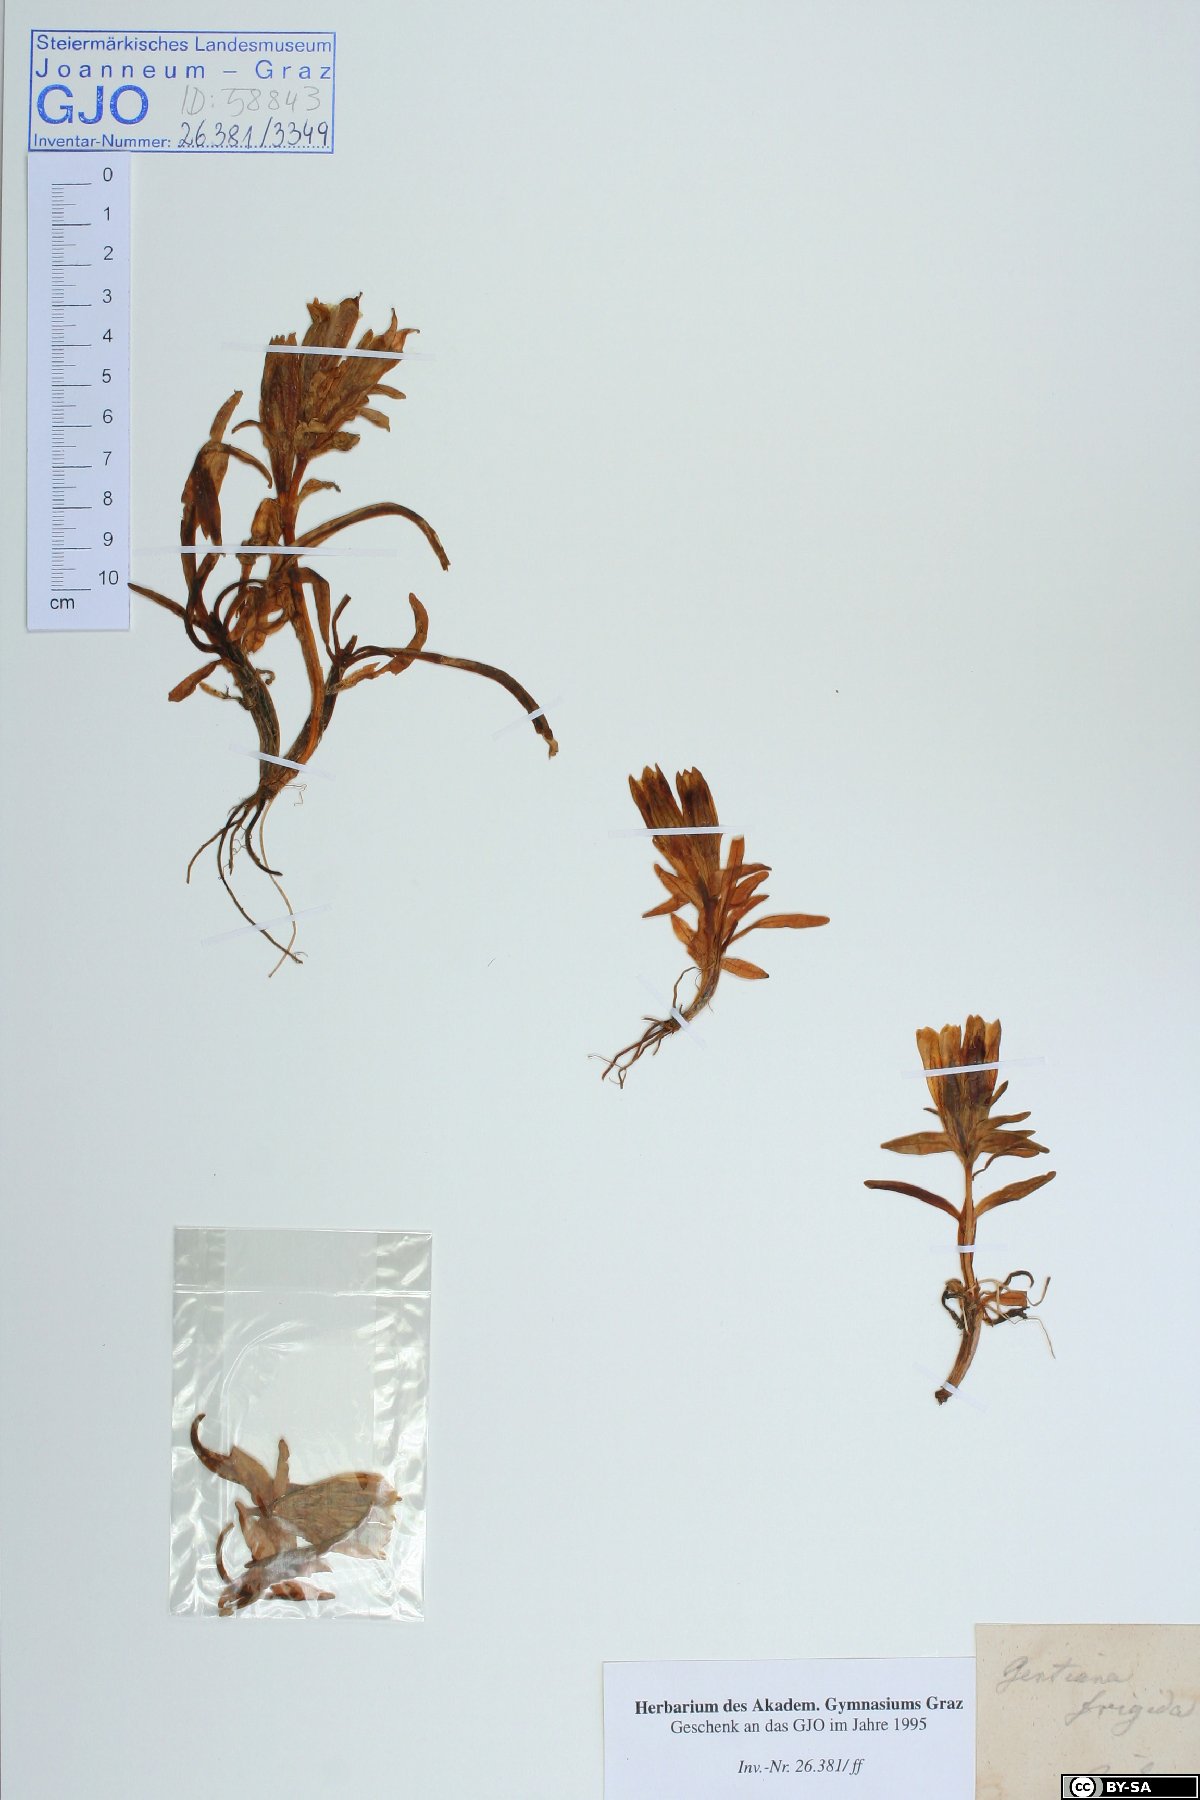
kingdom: Plantae
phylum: Tracheophyta
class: Magnoliopsida
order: Gentianales
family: Gentianaceae
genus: Gentiana
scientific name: Gentiana frigida
